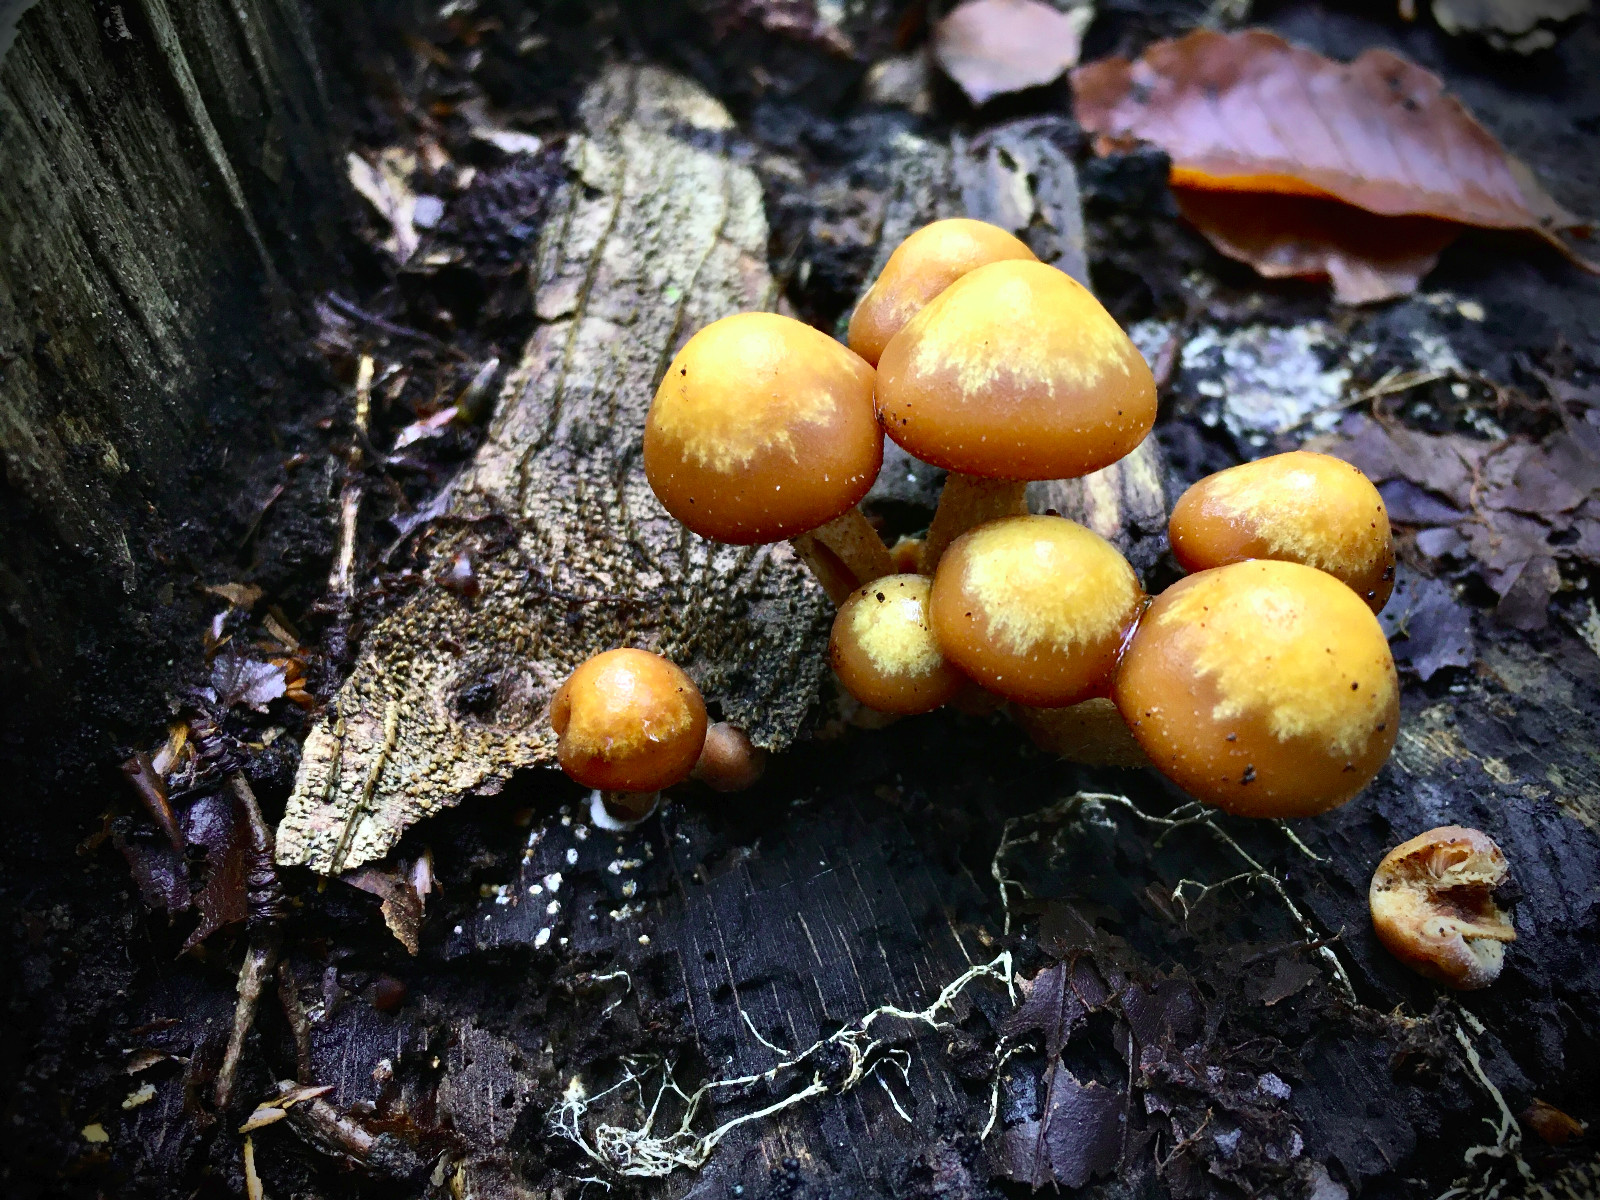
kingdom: Fungi
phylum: Basidiomycota
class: Agaricomycetes
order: Agaricales
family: Strophariaceae
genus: Kuehneromyces
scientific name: Kuehneromyces mutabilis
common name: foranderlig skælhat
